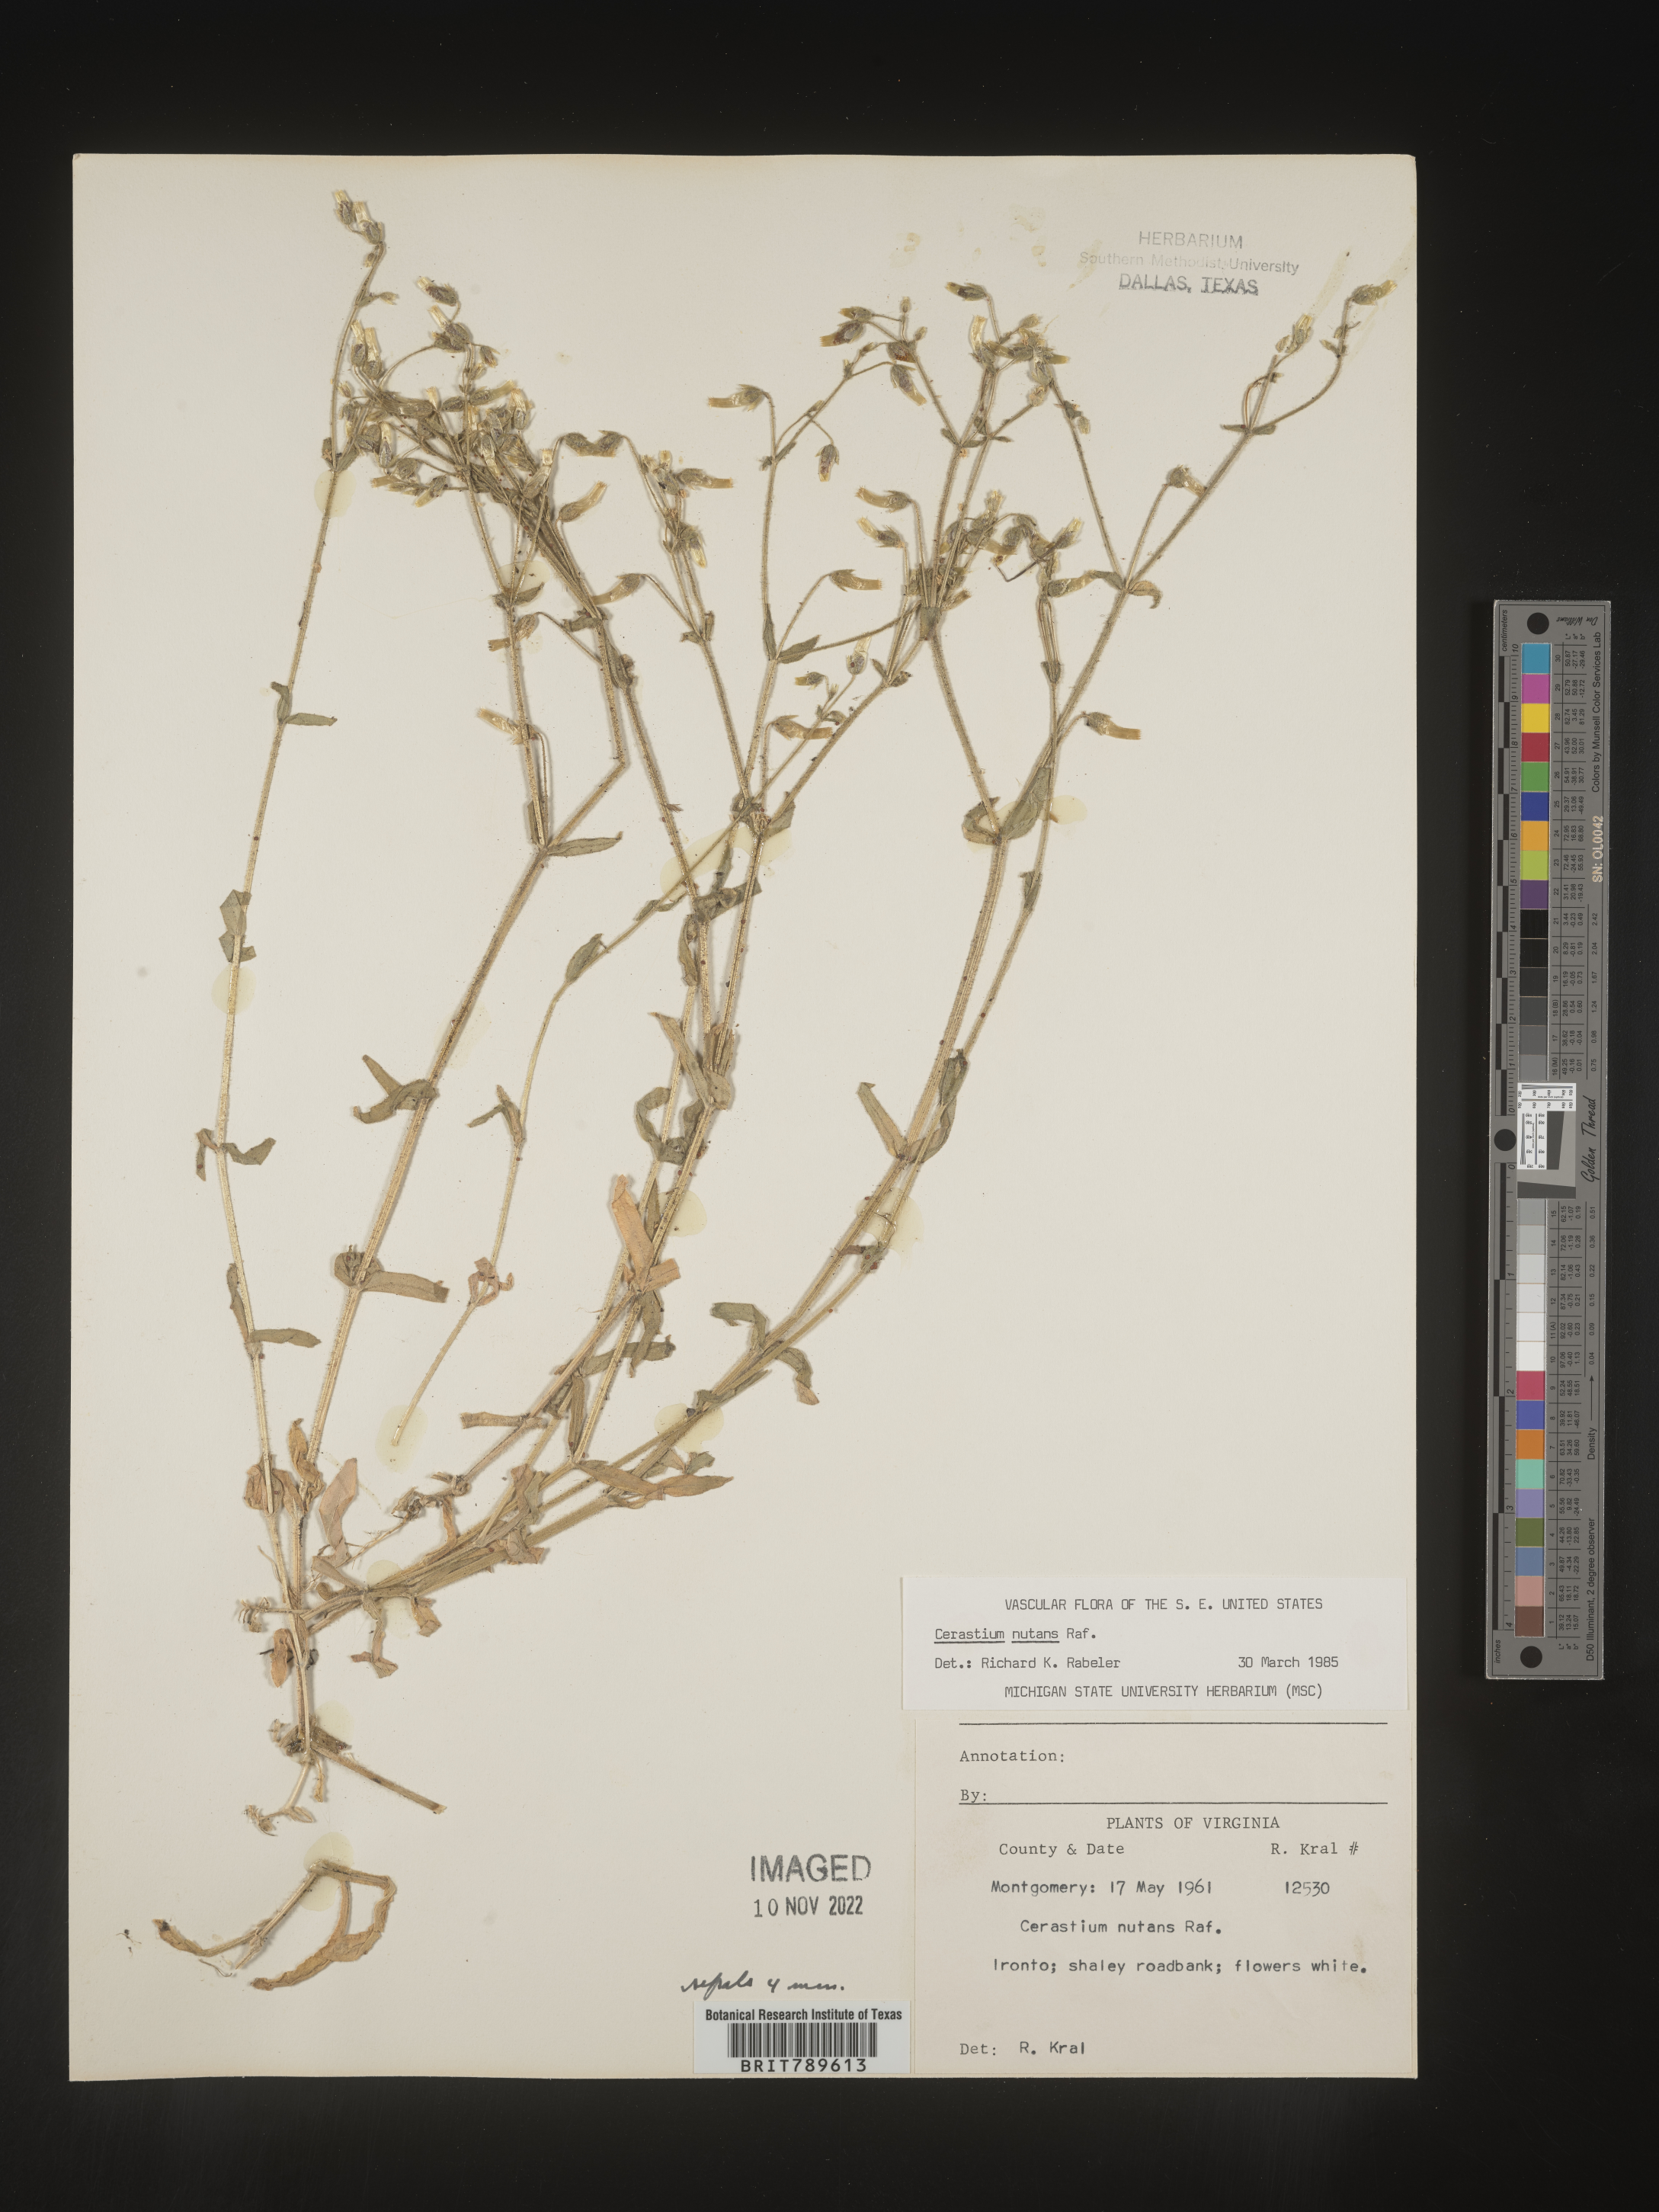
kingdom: Plantae
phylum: Tracheophyta
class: Magnoliopsida
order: Caryophyllales
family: Caryophyllaceae
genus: Cerastium
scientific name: Cerastium nutans
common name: Long-stalked chickweed
